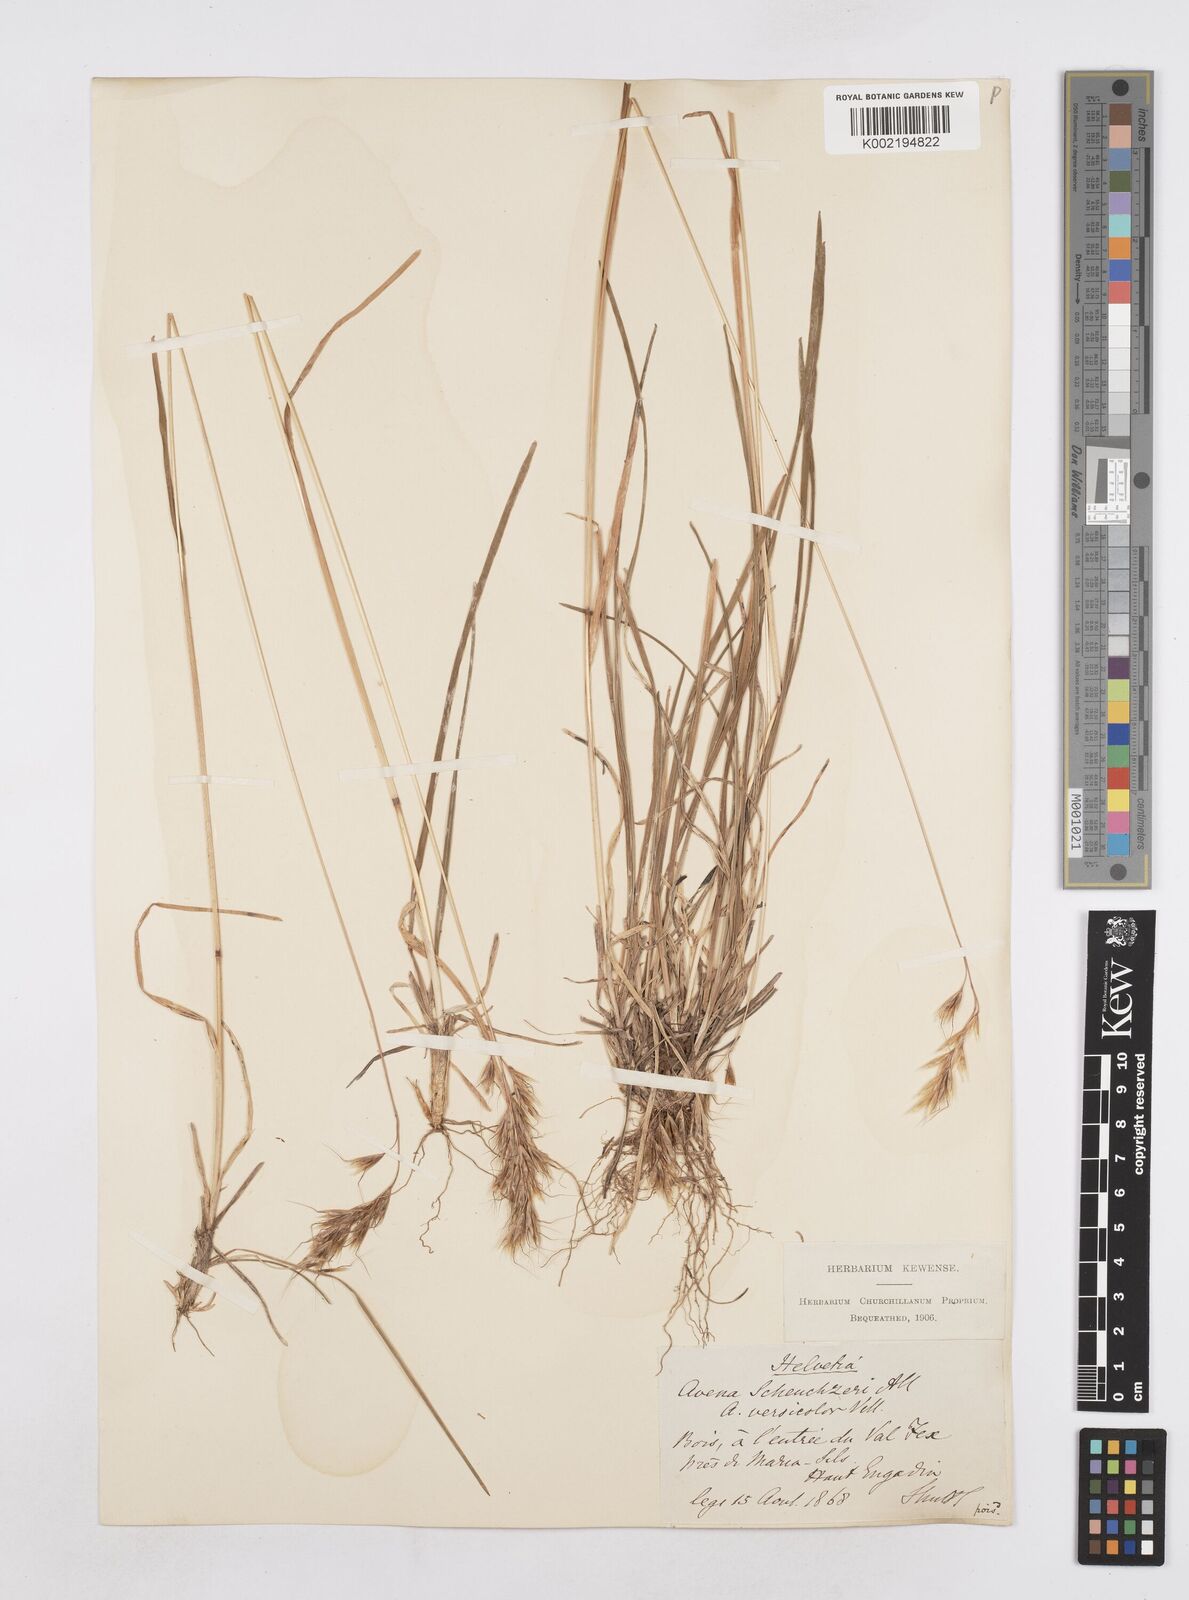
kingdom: Plantae
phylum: Tracheophyta
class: Liliopsida
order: Poales
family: Poaceae
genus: Helictotrichon
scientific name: Helictotrichon
